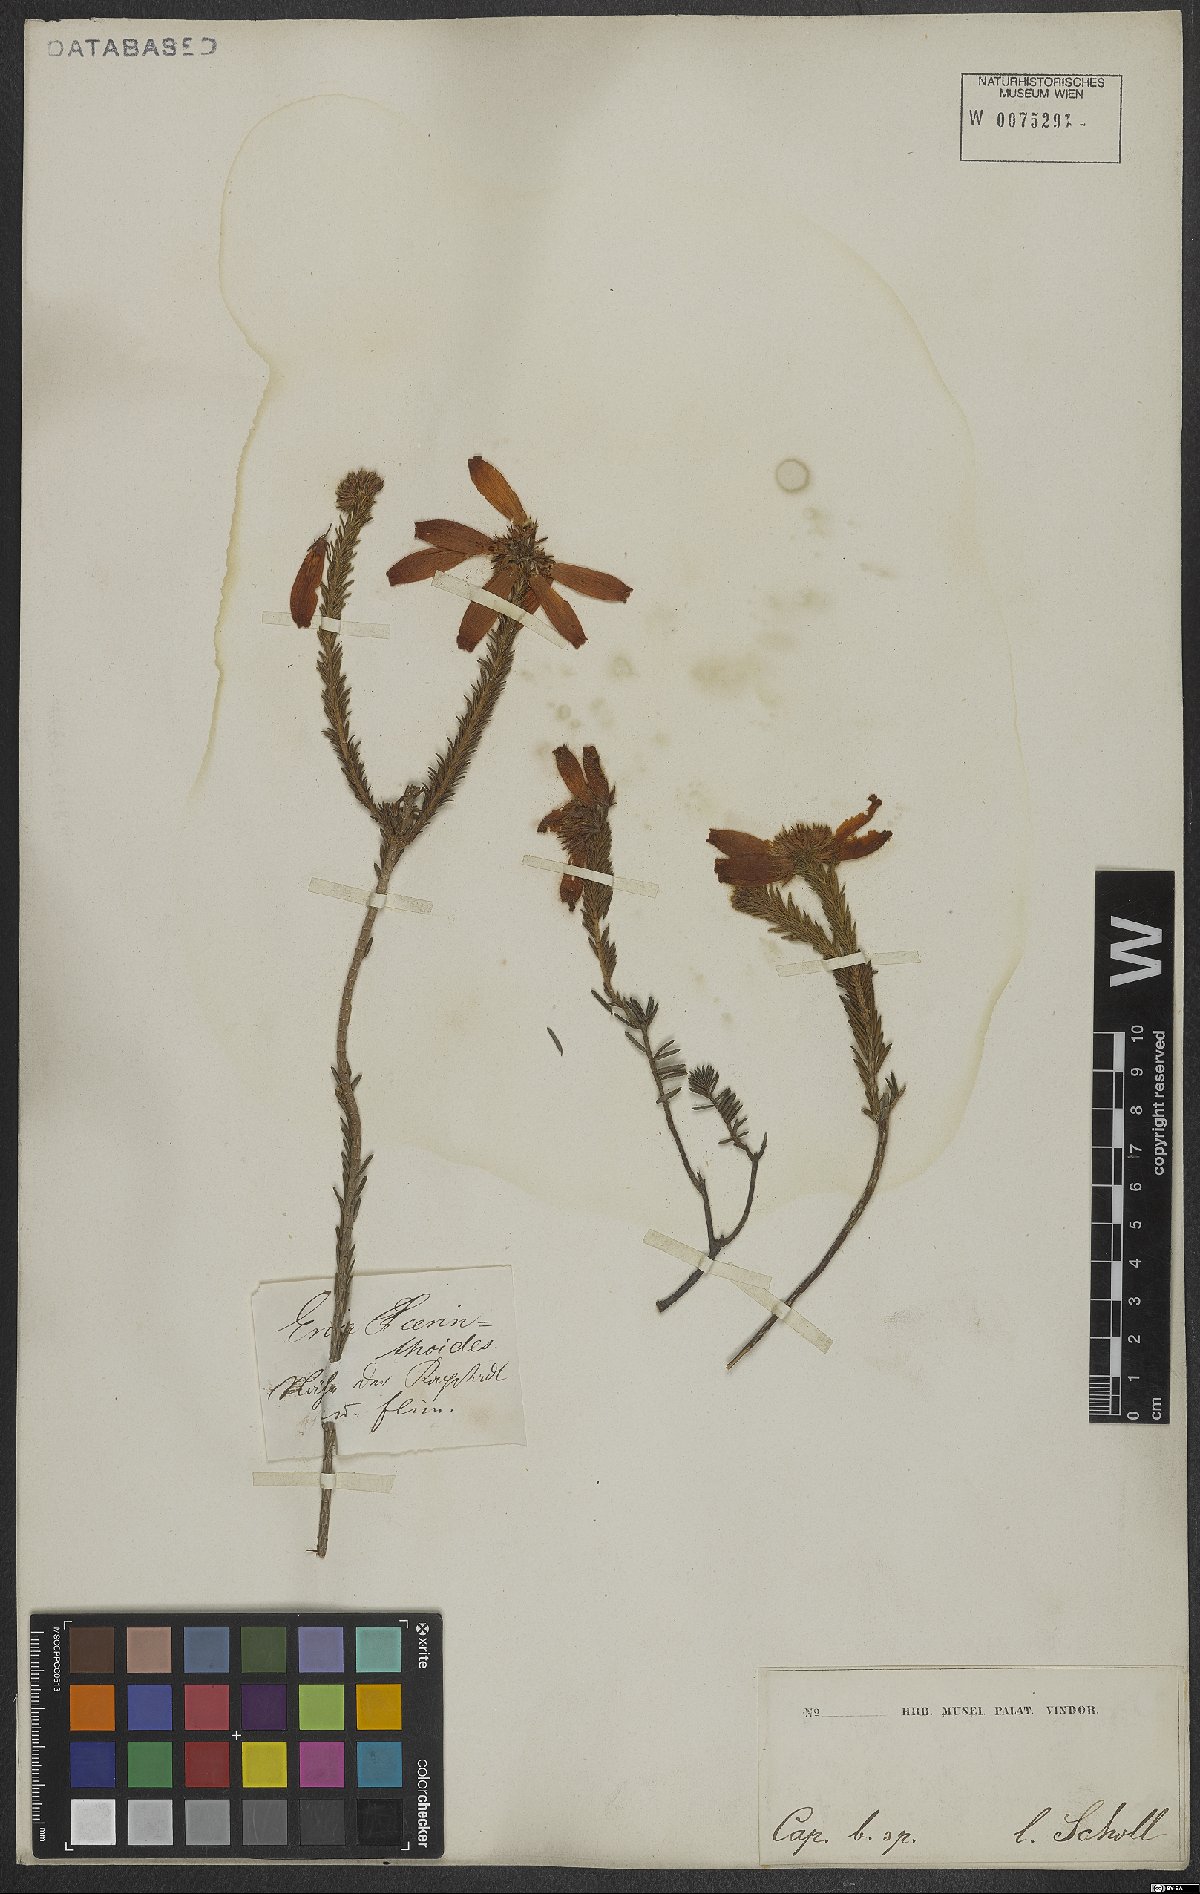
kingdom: Plantae
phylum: Tracheophyta
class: Magnoliopsida
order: Ericales
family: Ericaceae
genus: Erica
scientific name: Erica cerinthoides
